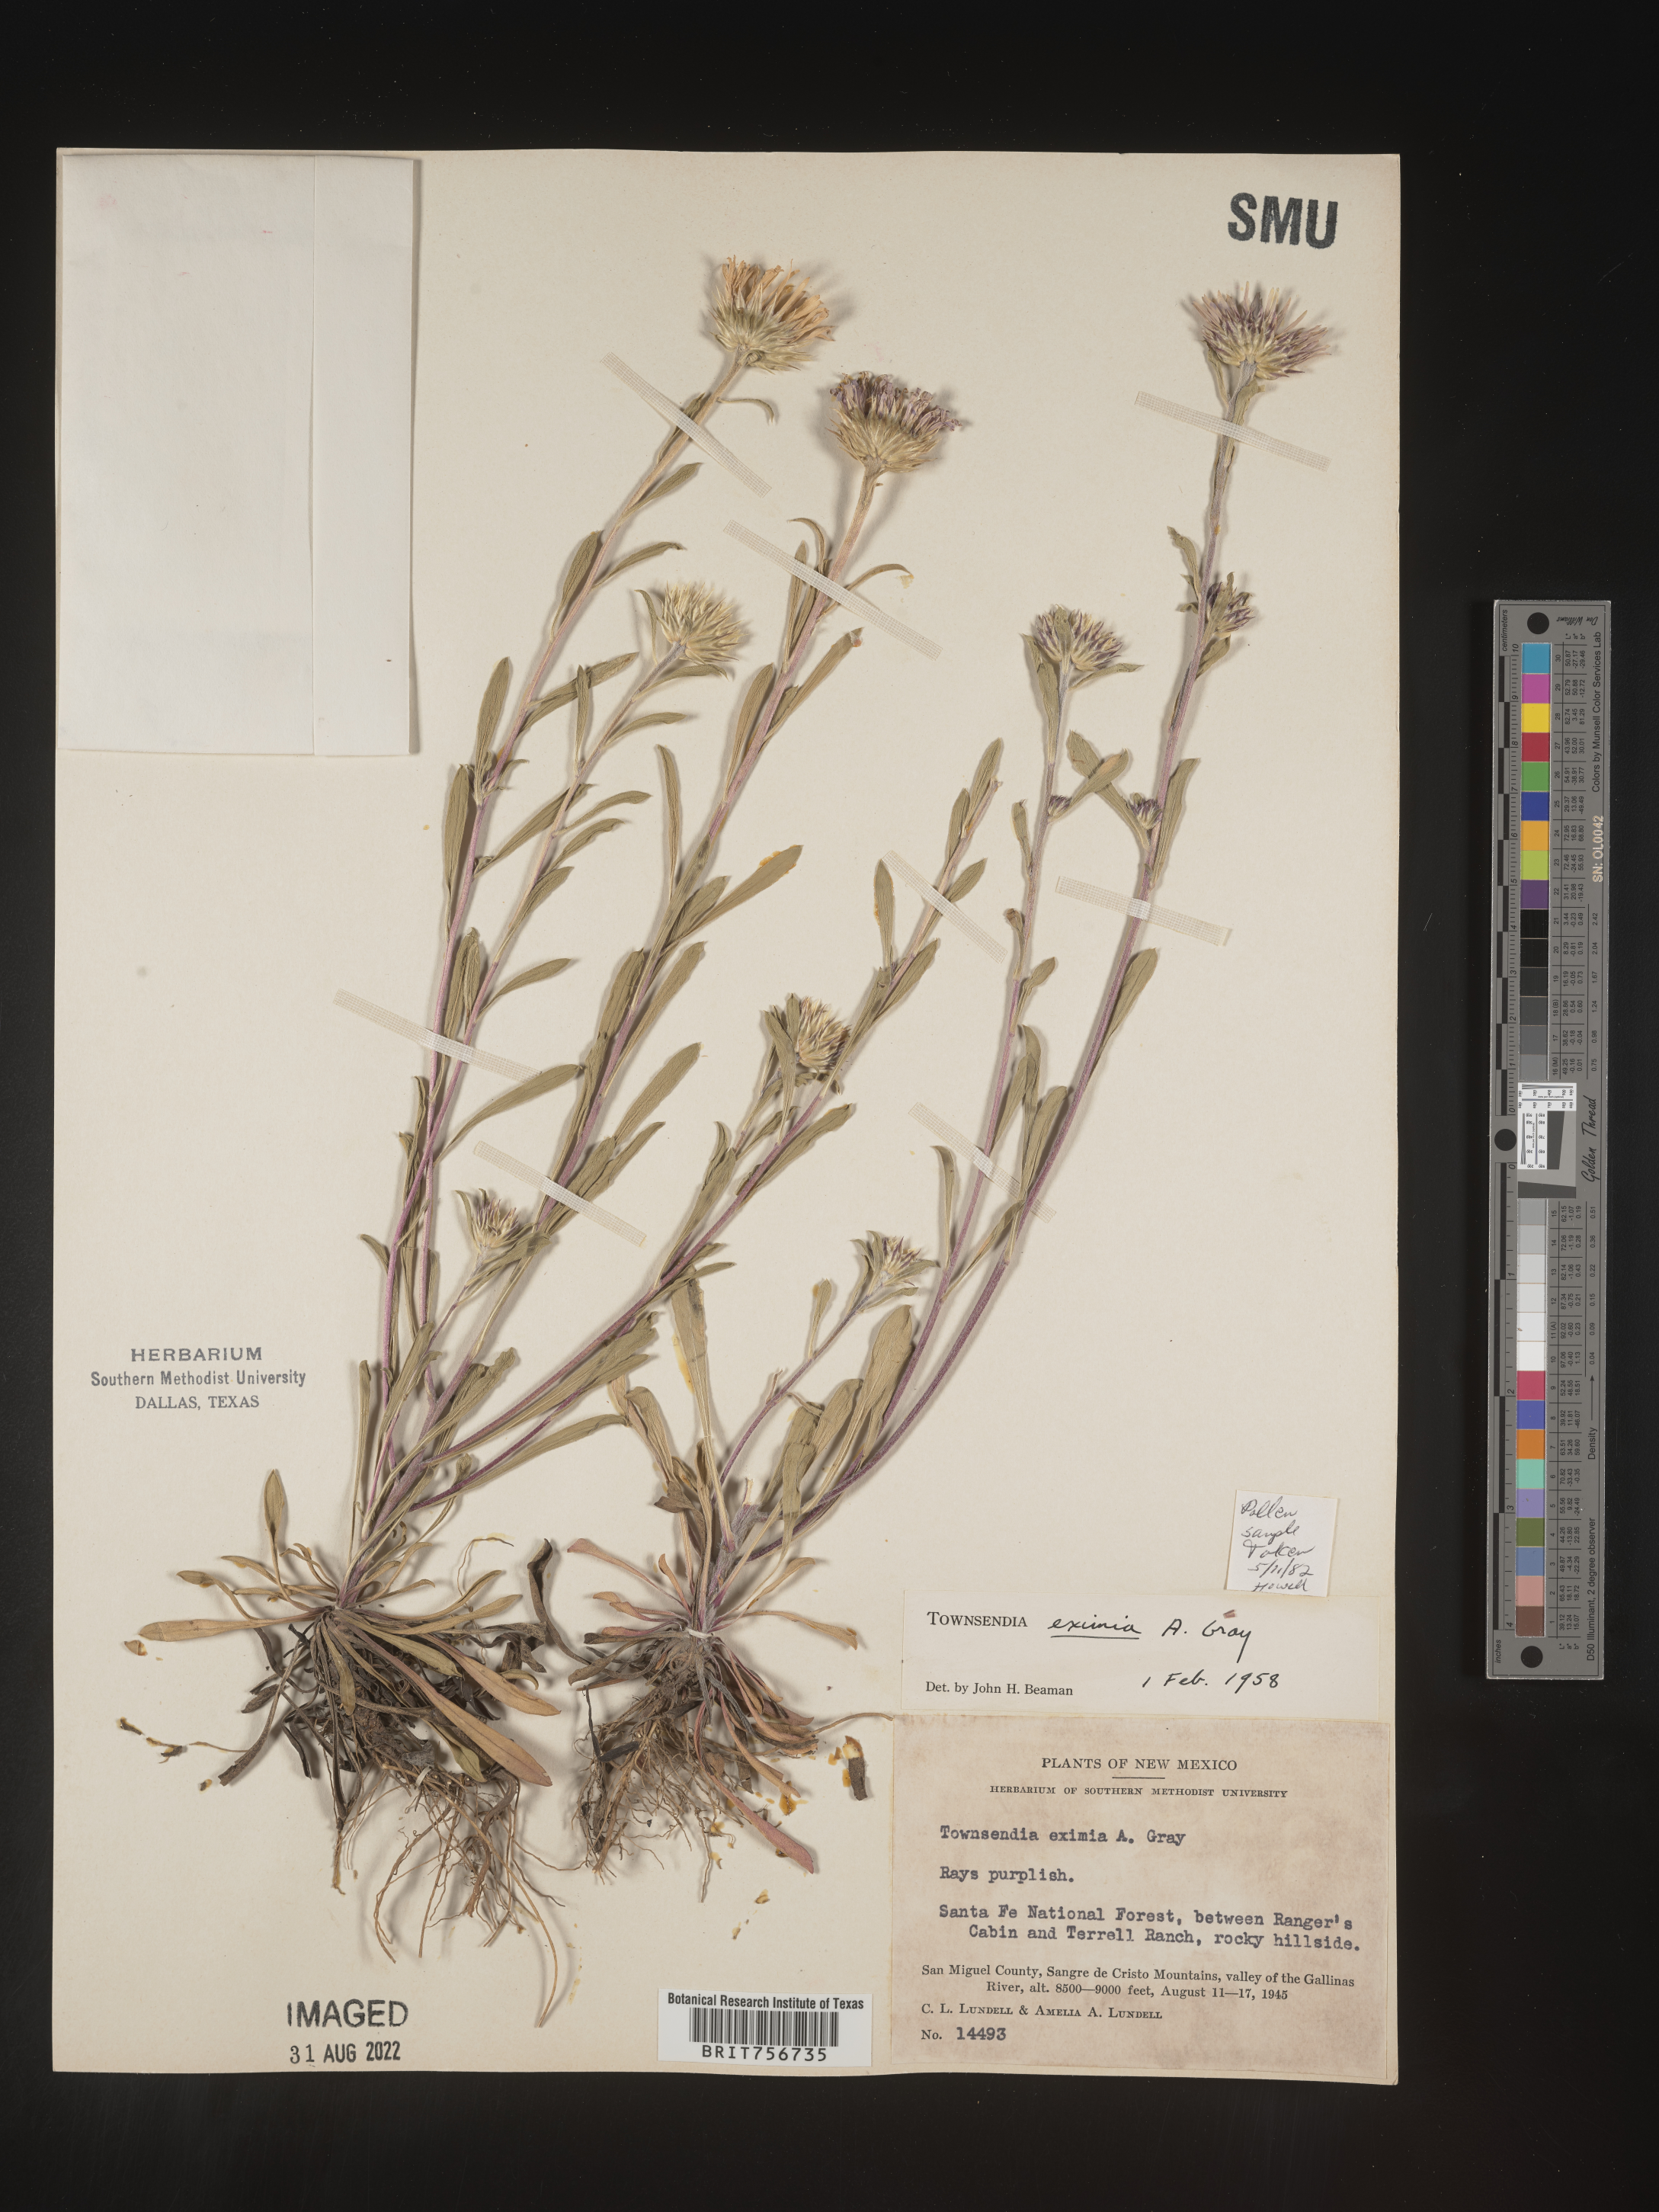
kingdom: Plantae
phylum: Tracheophyta
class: Magnoliopsida
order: Asterales
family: Asteraceae
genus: Townsendia
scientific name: Townsendia eximia
